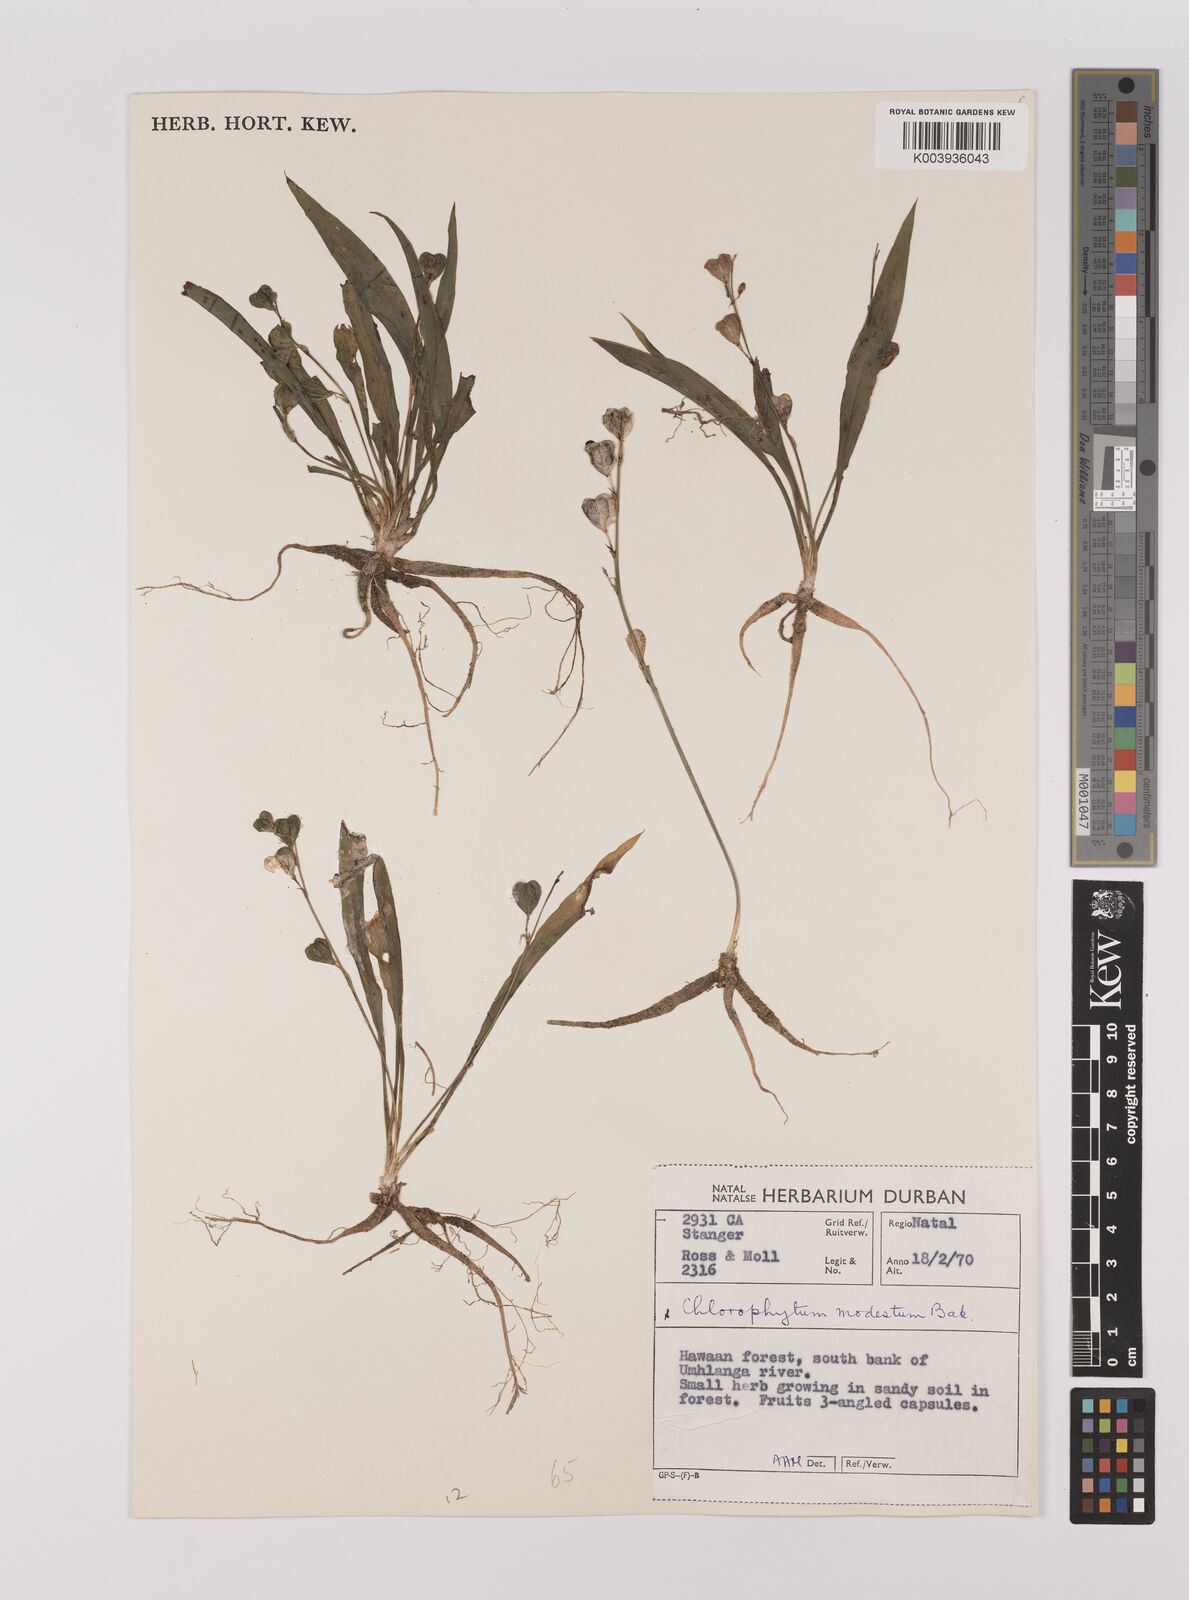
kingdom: Plantae
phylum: Tracheophyta
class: Liliopsida
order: Asparagales
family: Asparagaceae
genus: Chlorophytum
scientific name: Chlorophytum modestum
